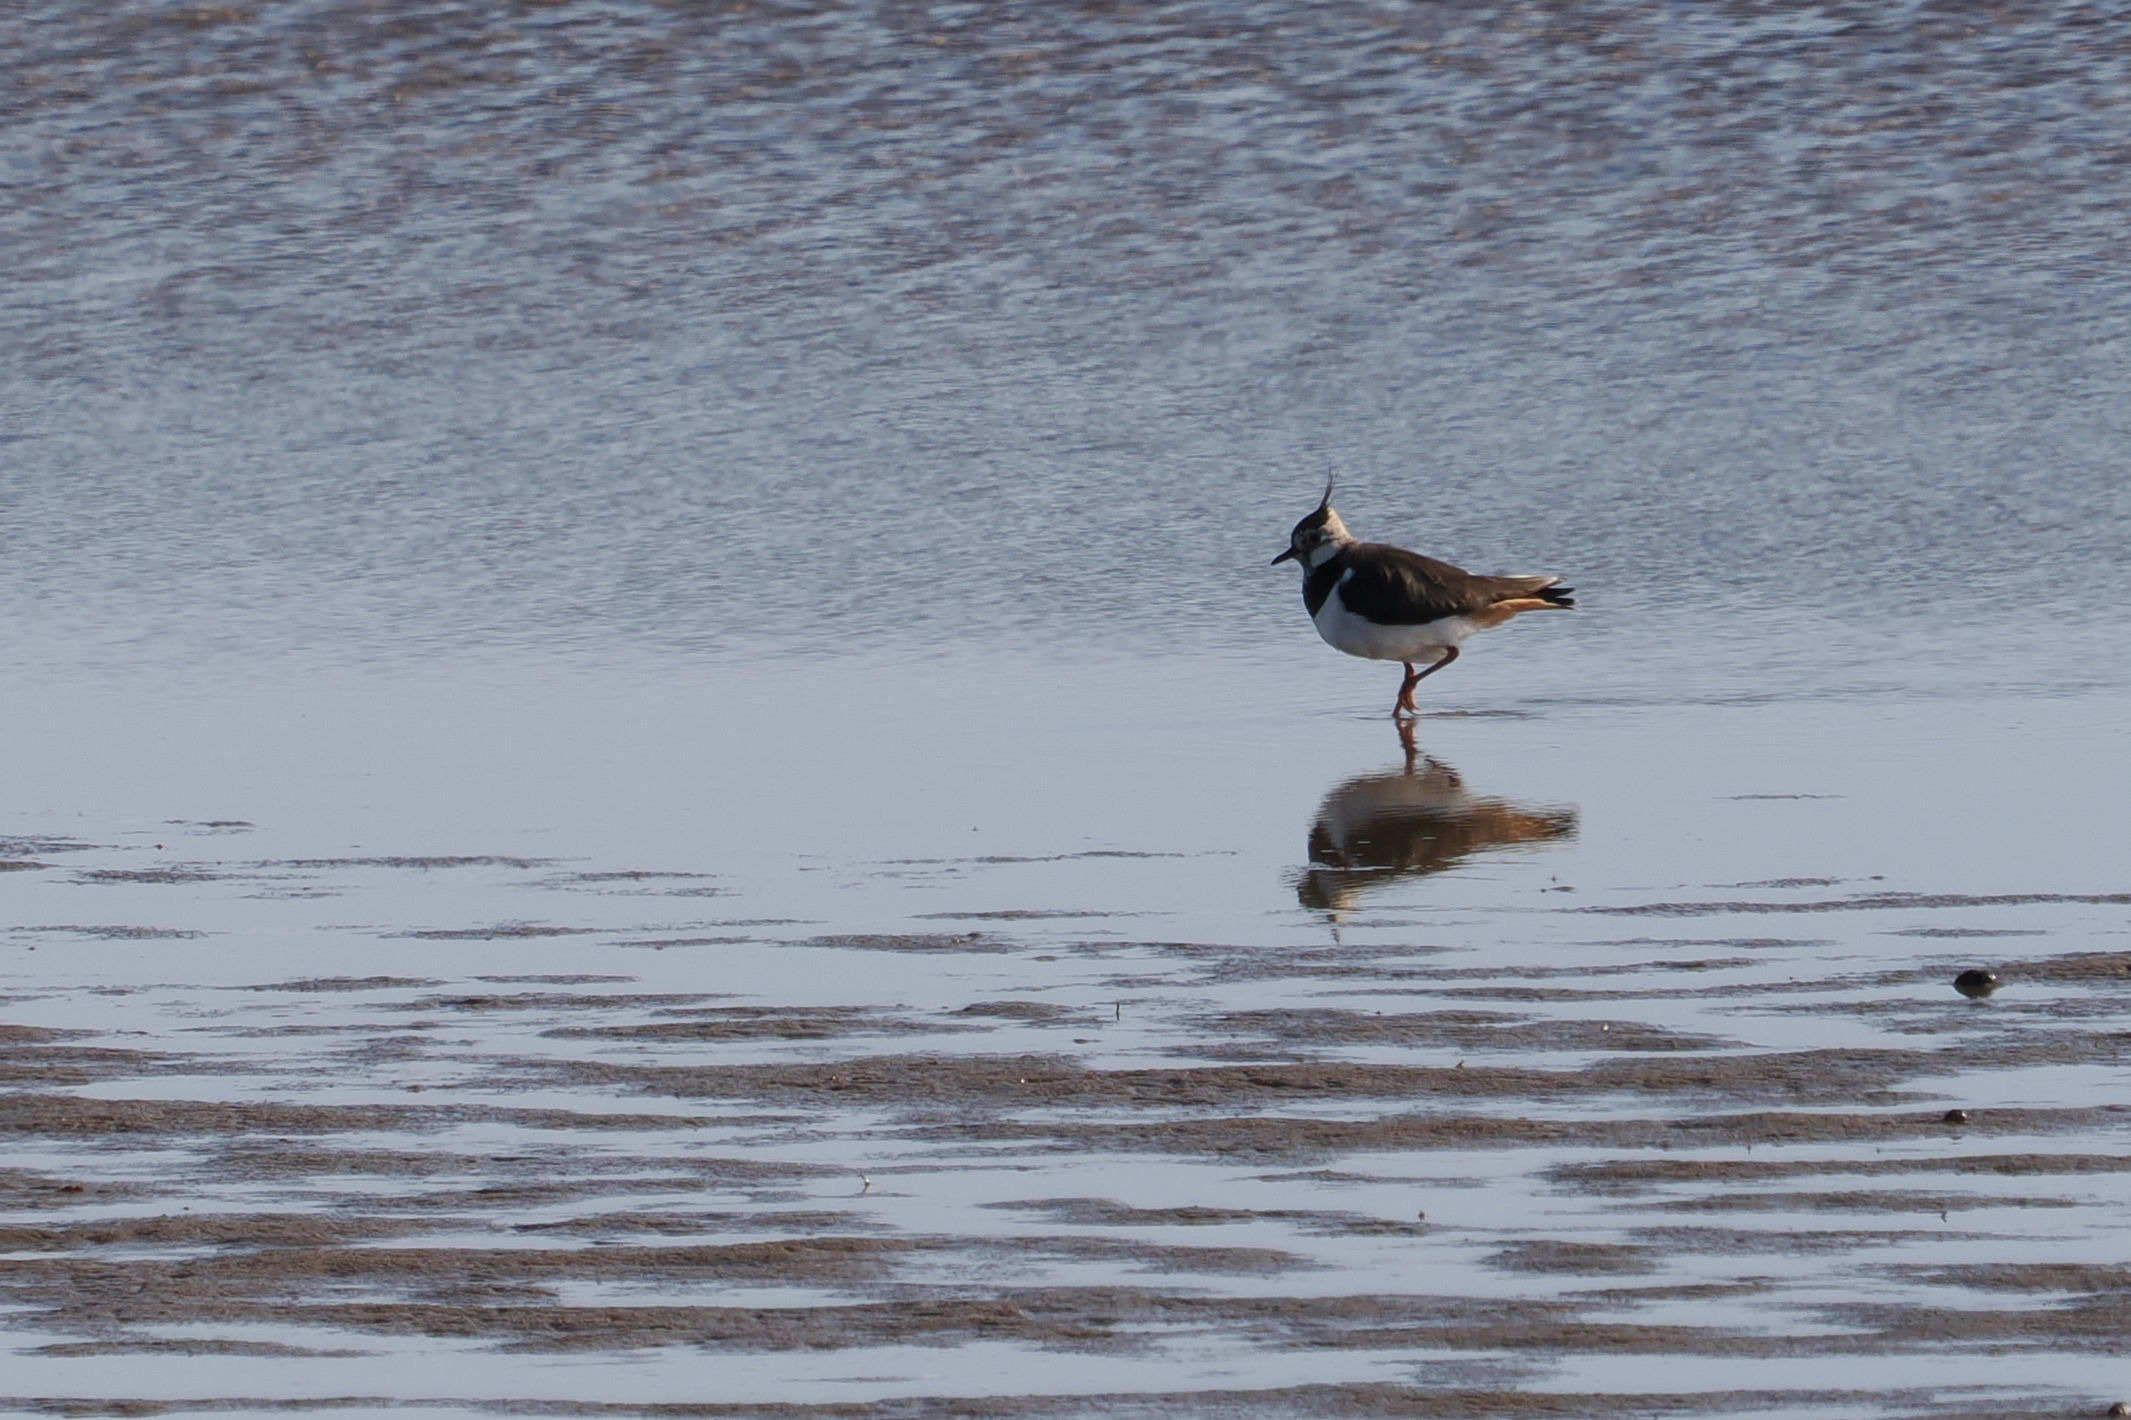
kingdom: Animalia
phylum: Chordata
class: Aves
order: Charadriiformes
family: Charadriidae
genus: Vanellus
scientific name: Vanellus vanellus
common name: Vibe
